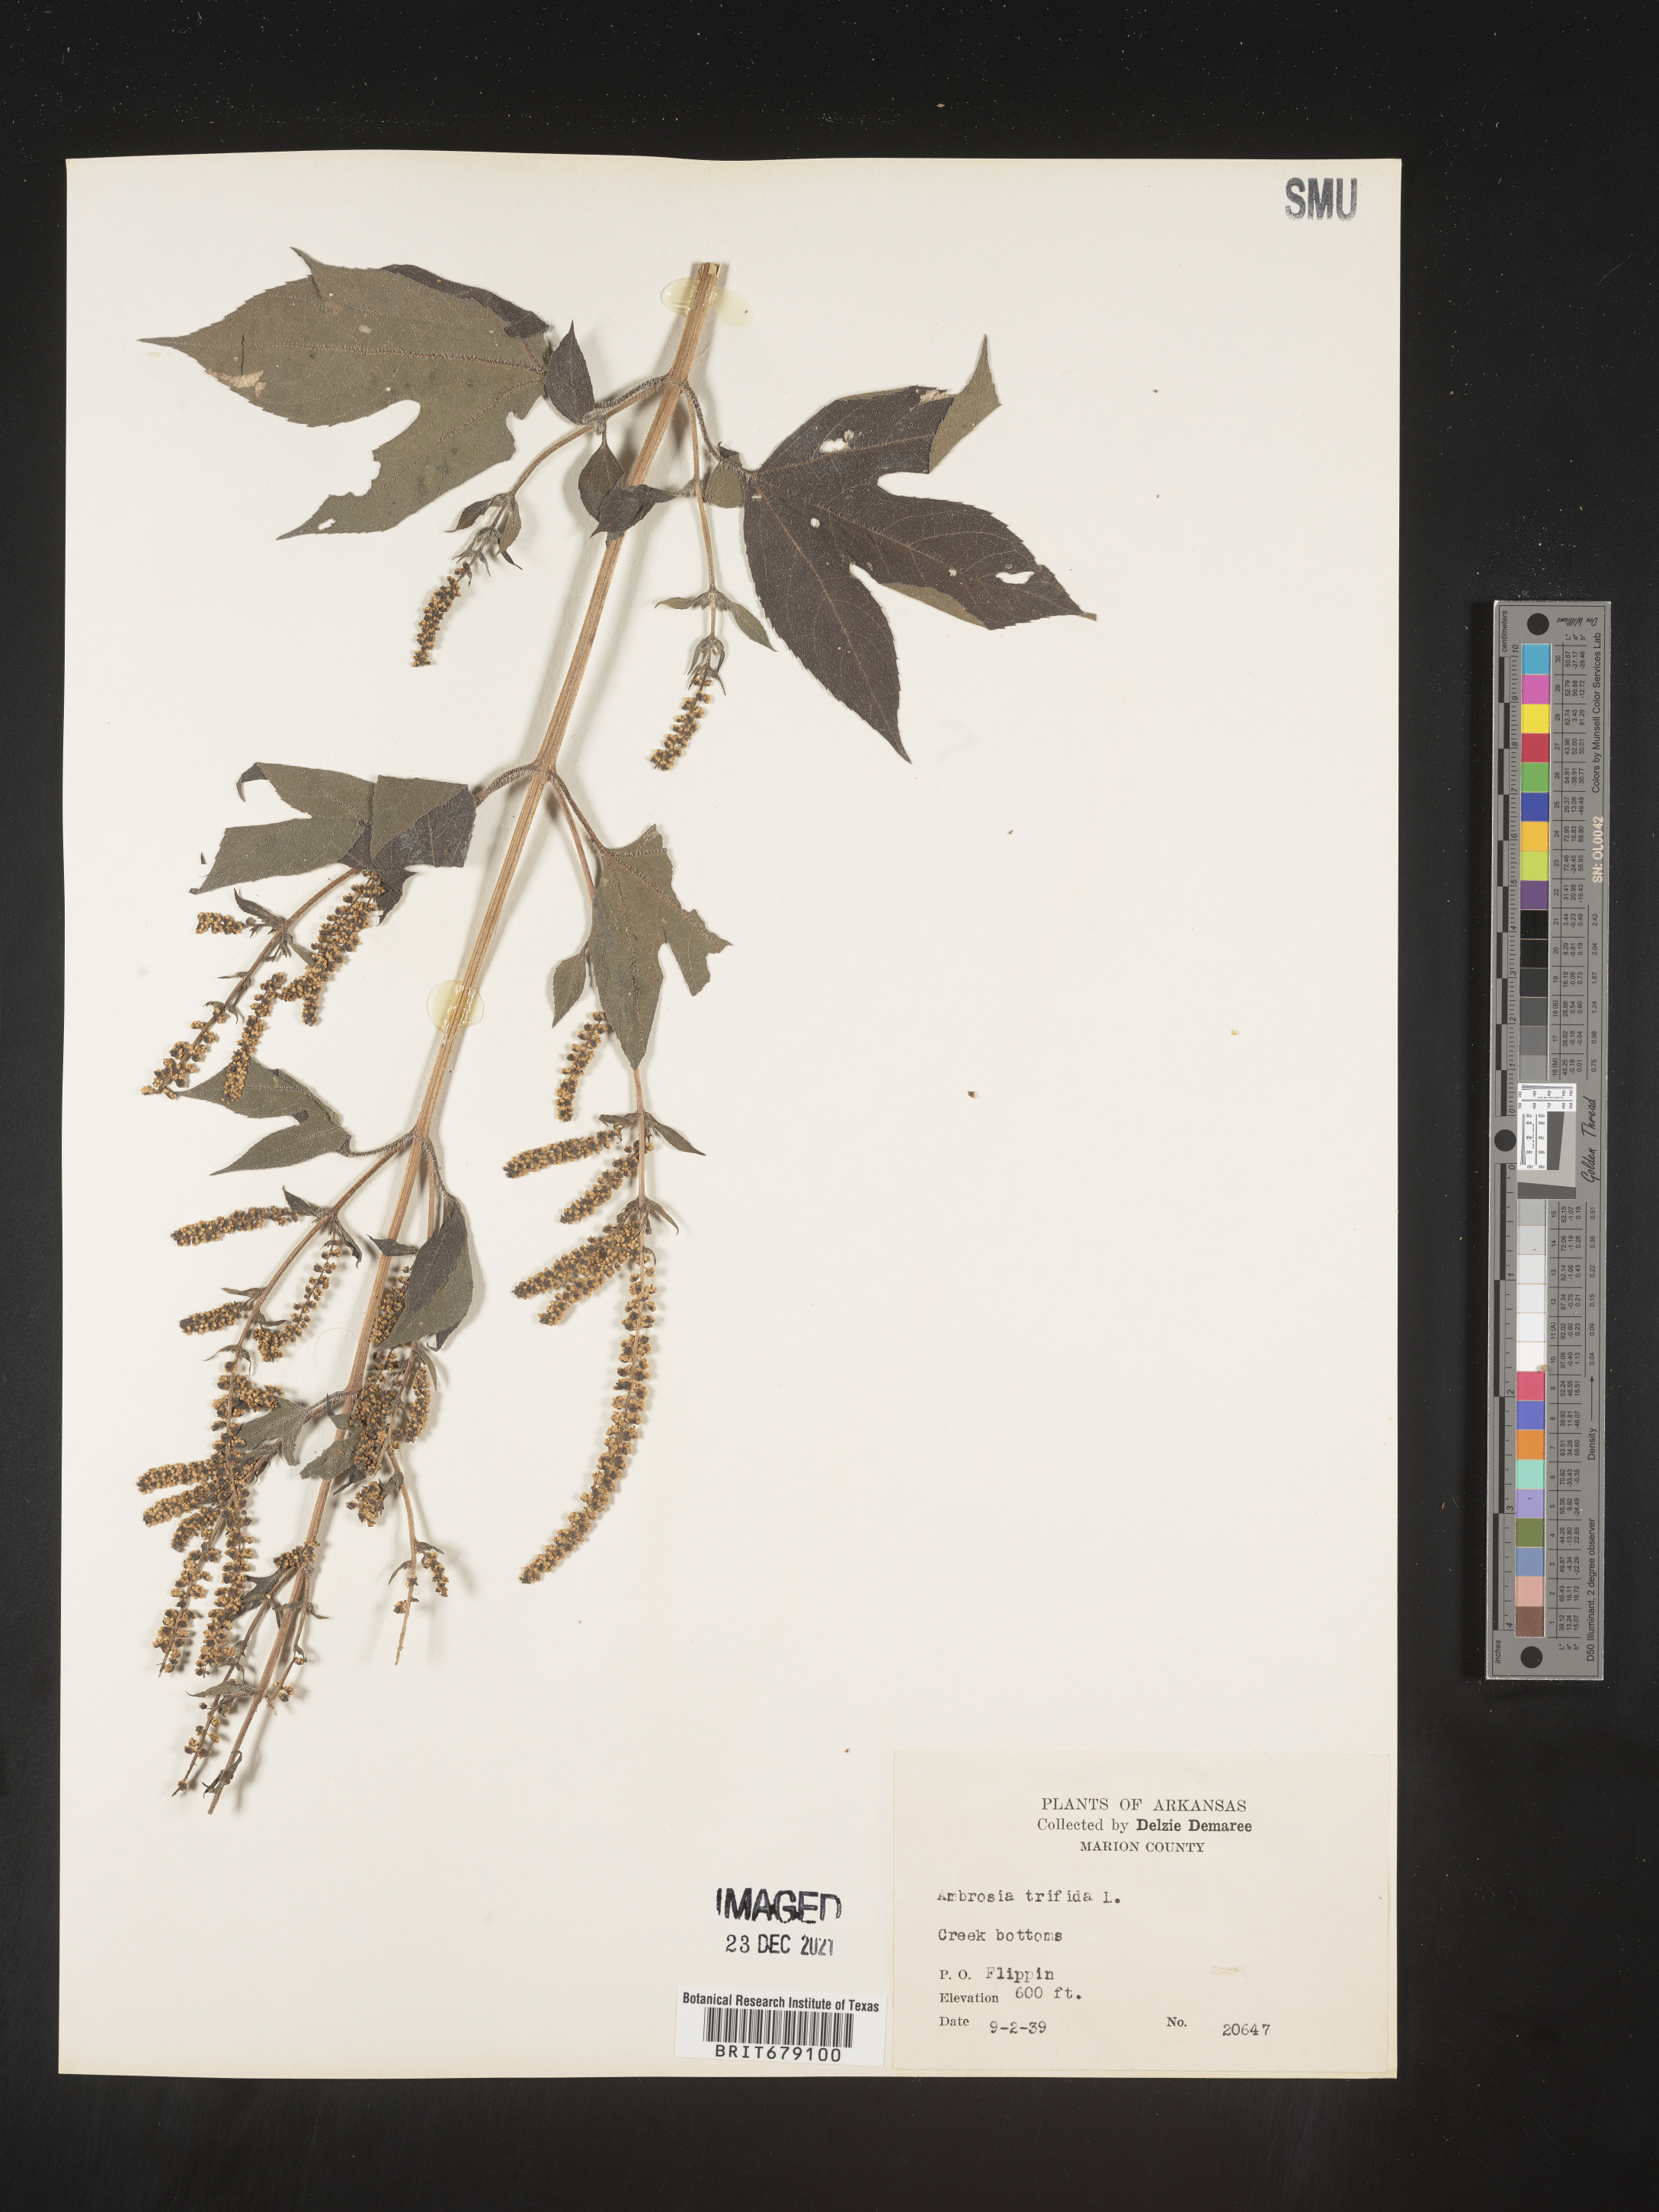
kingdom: Plantae
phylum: Tracheophyta
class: Magnoliopsida
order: Asterales
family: Asteraceae
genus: Ambrosia
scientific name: Ambrosia trifida
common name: Giant ragweed
